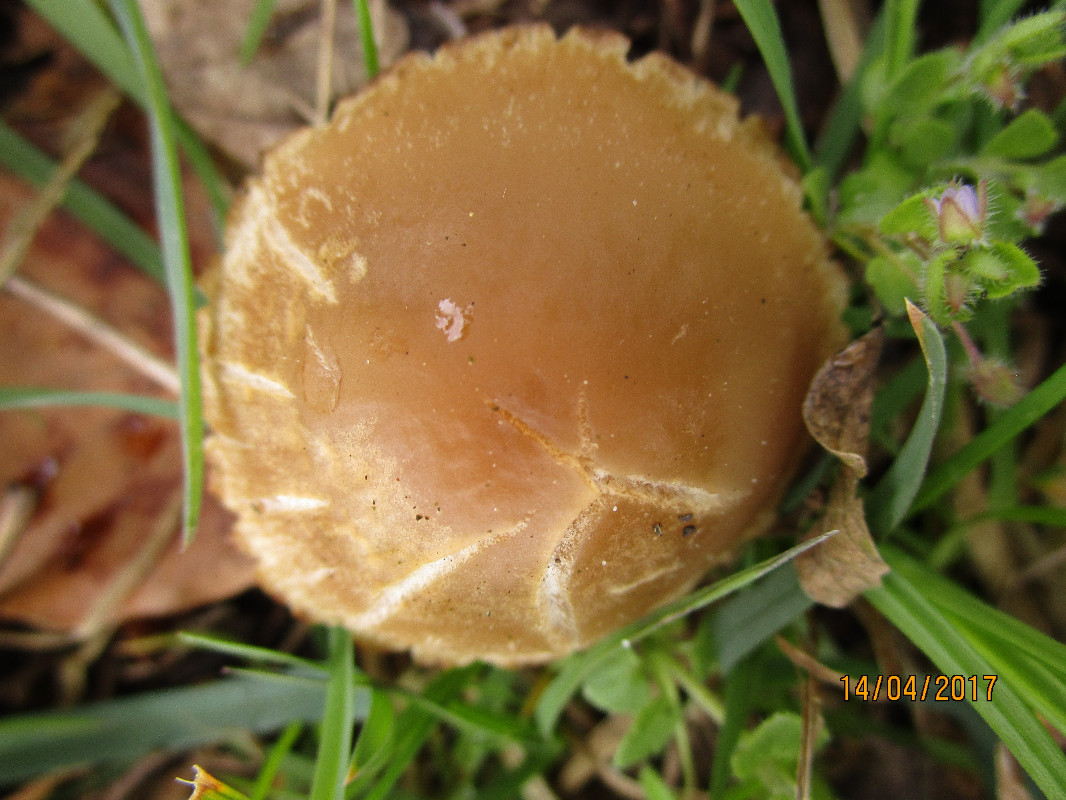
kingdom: Fungi
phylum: Basidiomycota
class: Agaricomycetes
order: Agaricales
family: Psathyrellaceae
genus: Psathyrella
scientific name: Psathyrella spadiceogrisea
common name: gråbrun mørkhat
